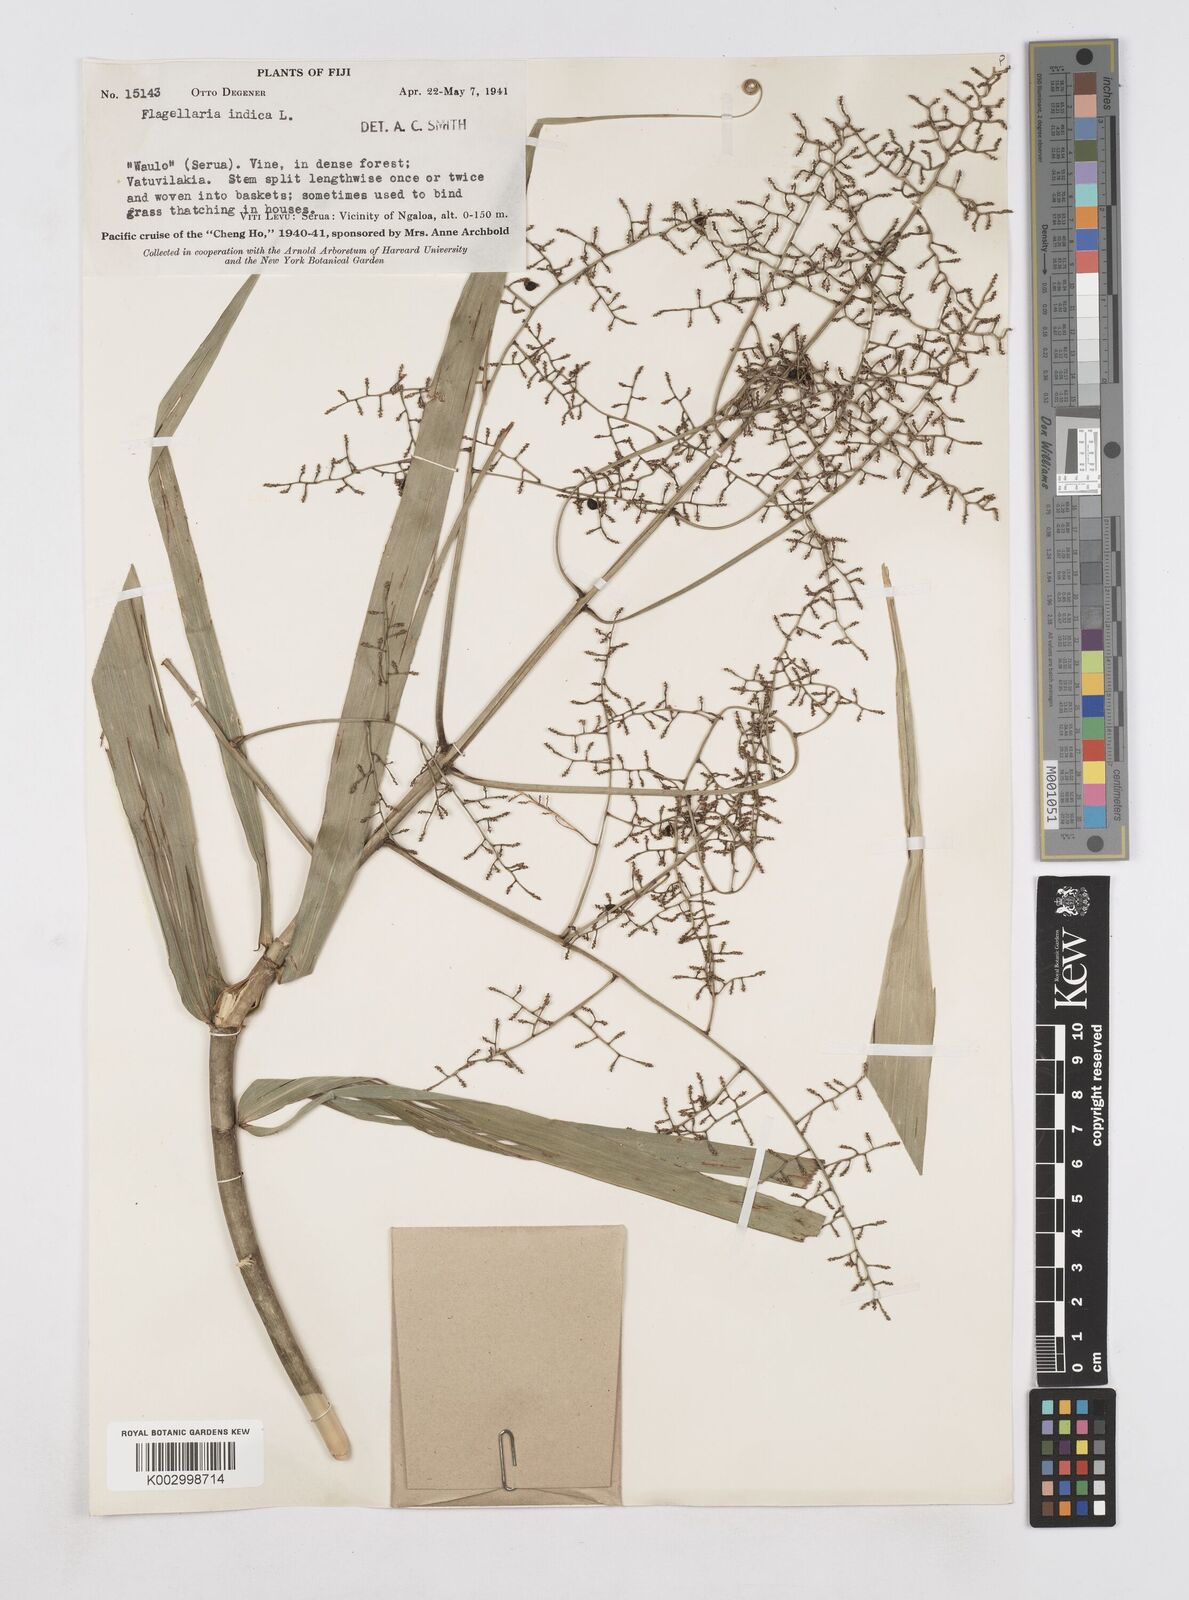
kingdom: Plantae
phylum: Tracheophyta
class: Liliopsida
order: Poales
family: Flagellariaceae
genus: Flagellaria
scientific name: Flagellaria indica
